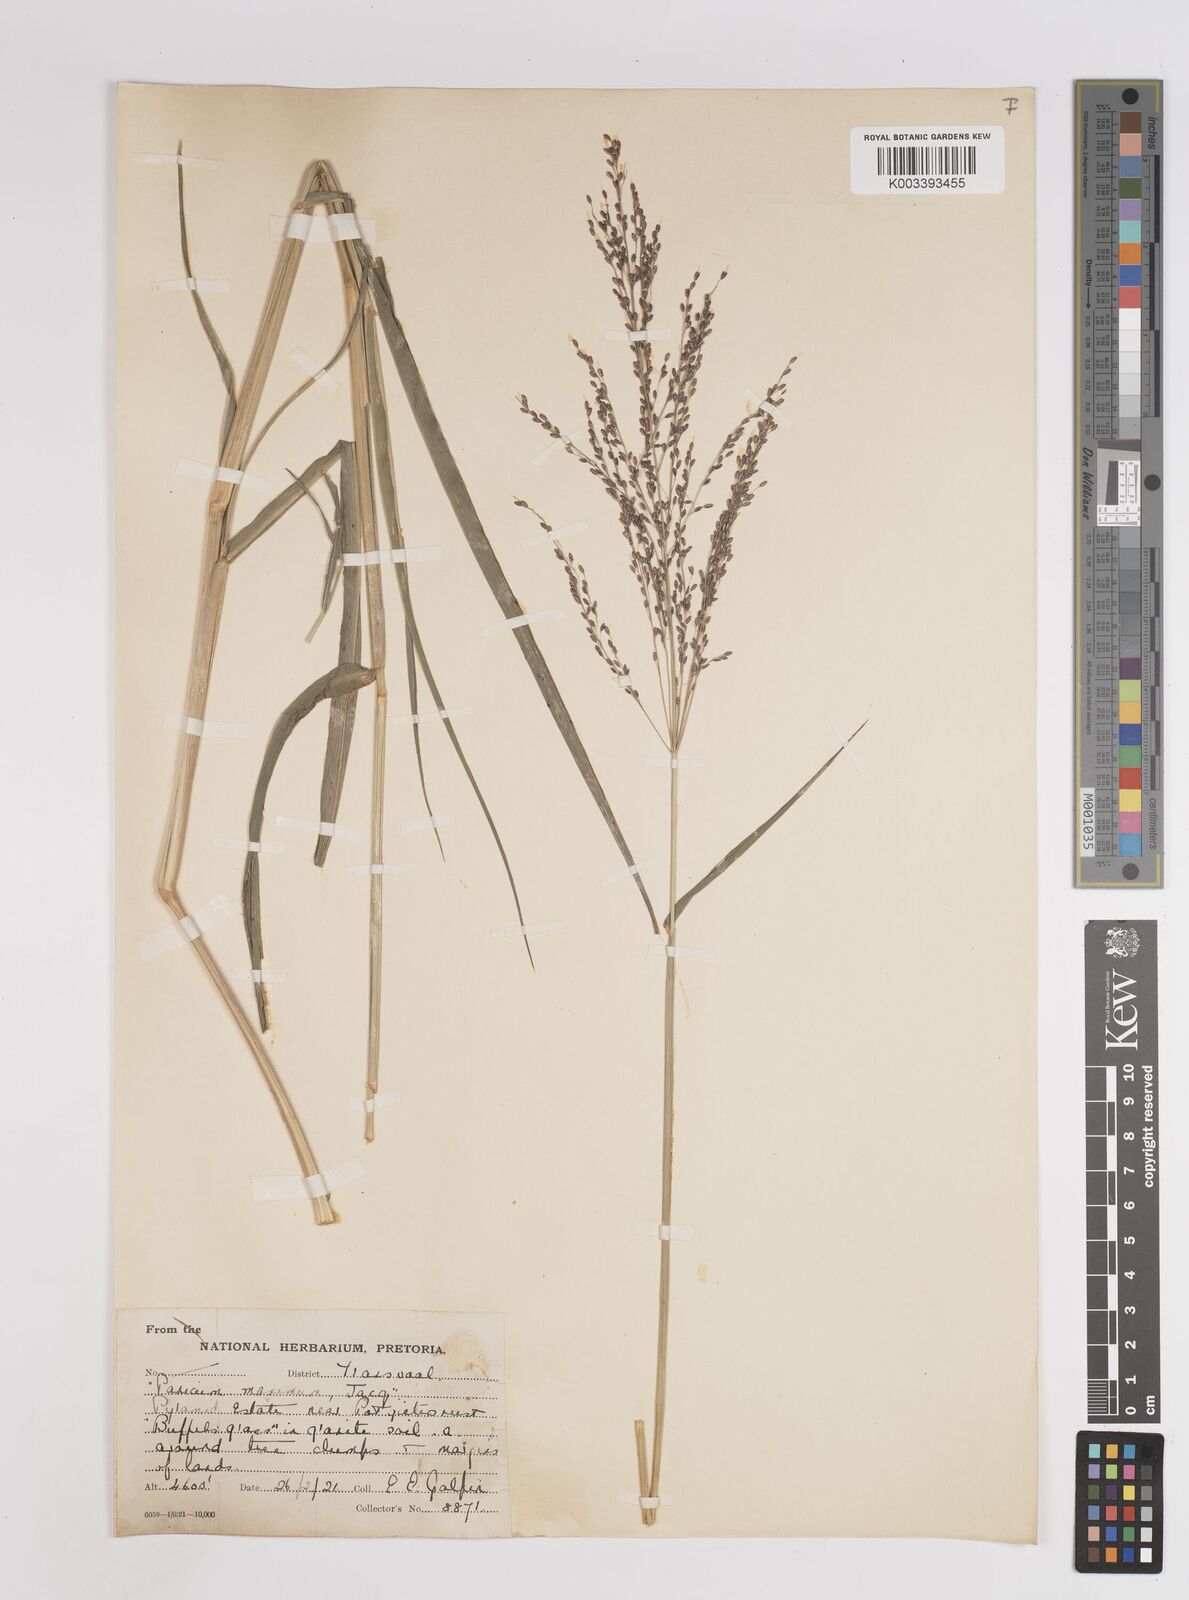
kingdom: Plantae
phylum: Tracheophyta
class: Liliopsida
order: Poales
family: Poaceae
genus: Megathyrsus
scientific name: Megathyrsus maximus
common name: Guineagrass
